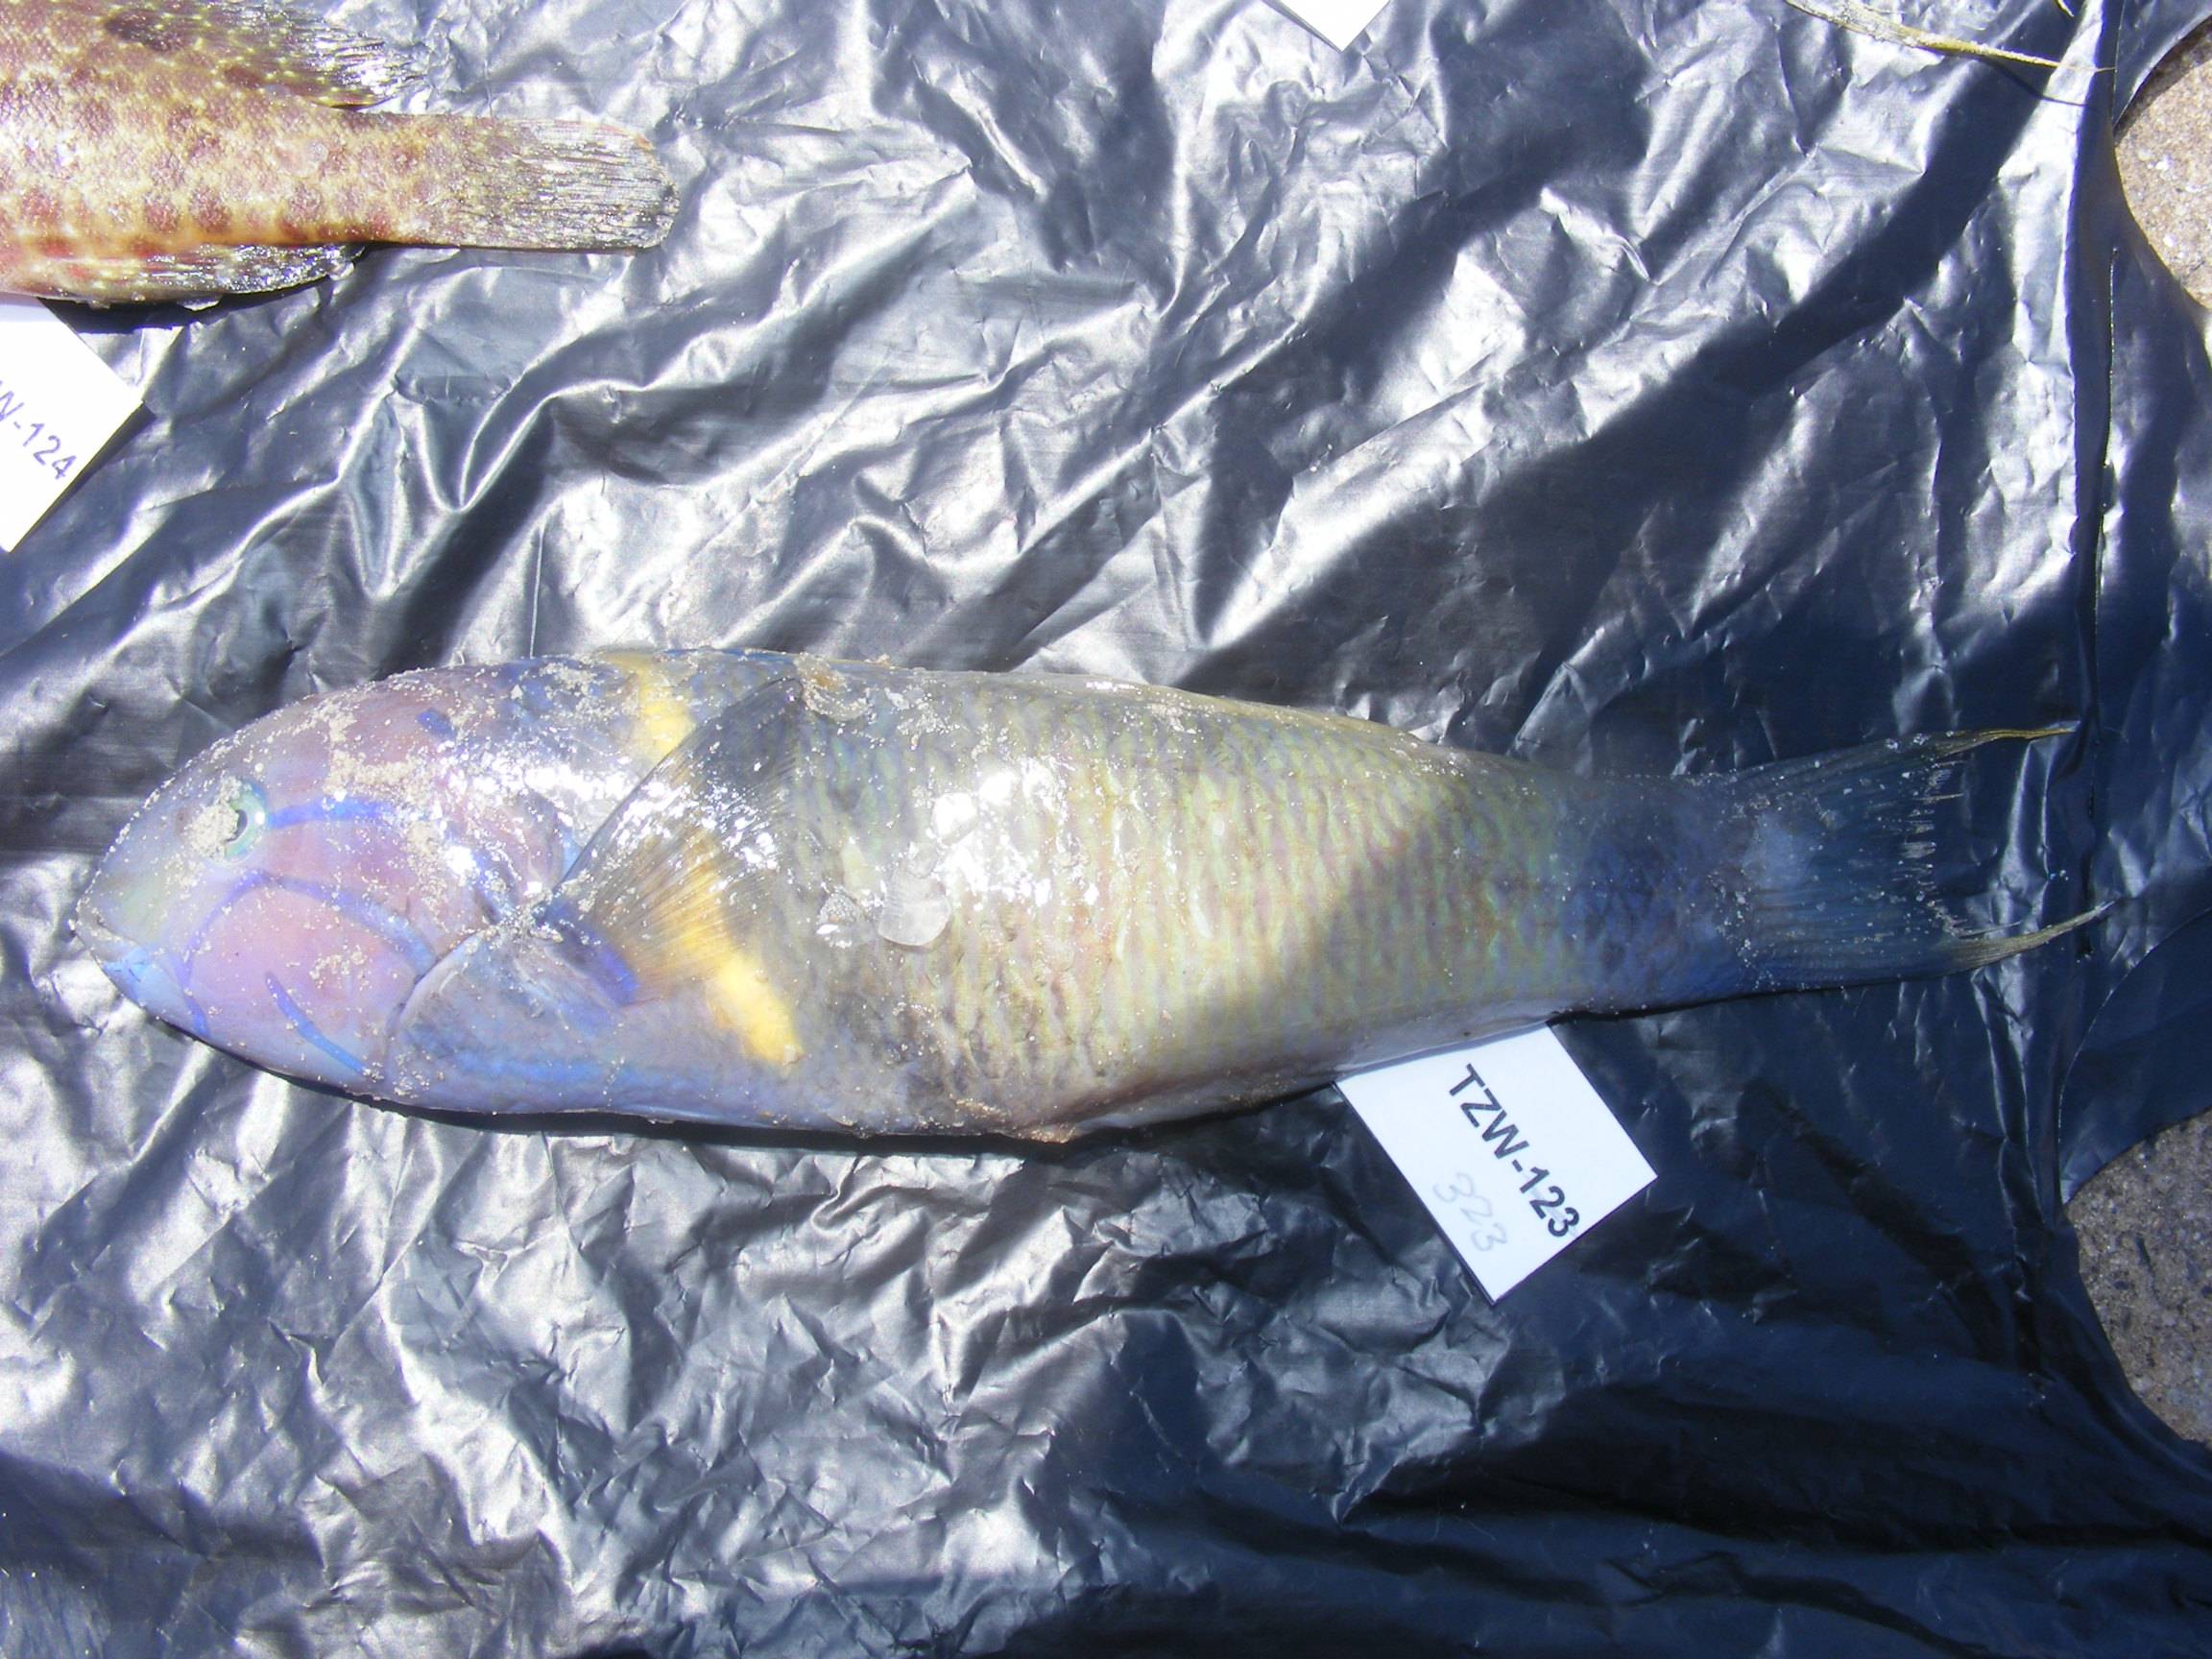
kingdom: Animalia
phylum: Chordata
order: Perciformes
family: Labridae
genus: Thalassoma
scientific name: Thalassoma hebraicum
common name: Goldbar wrasse
